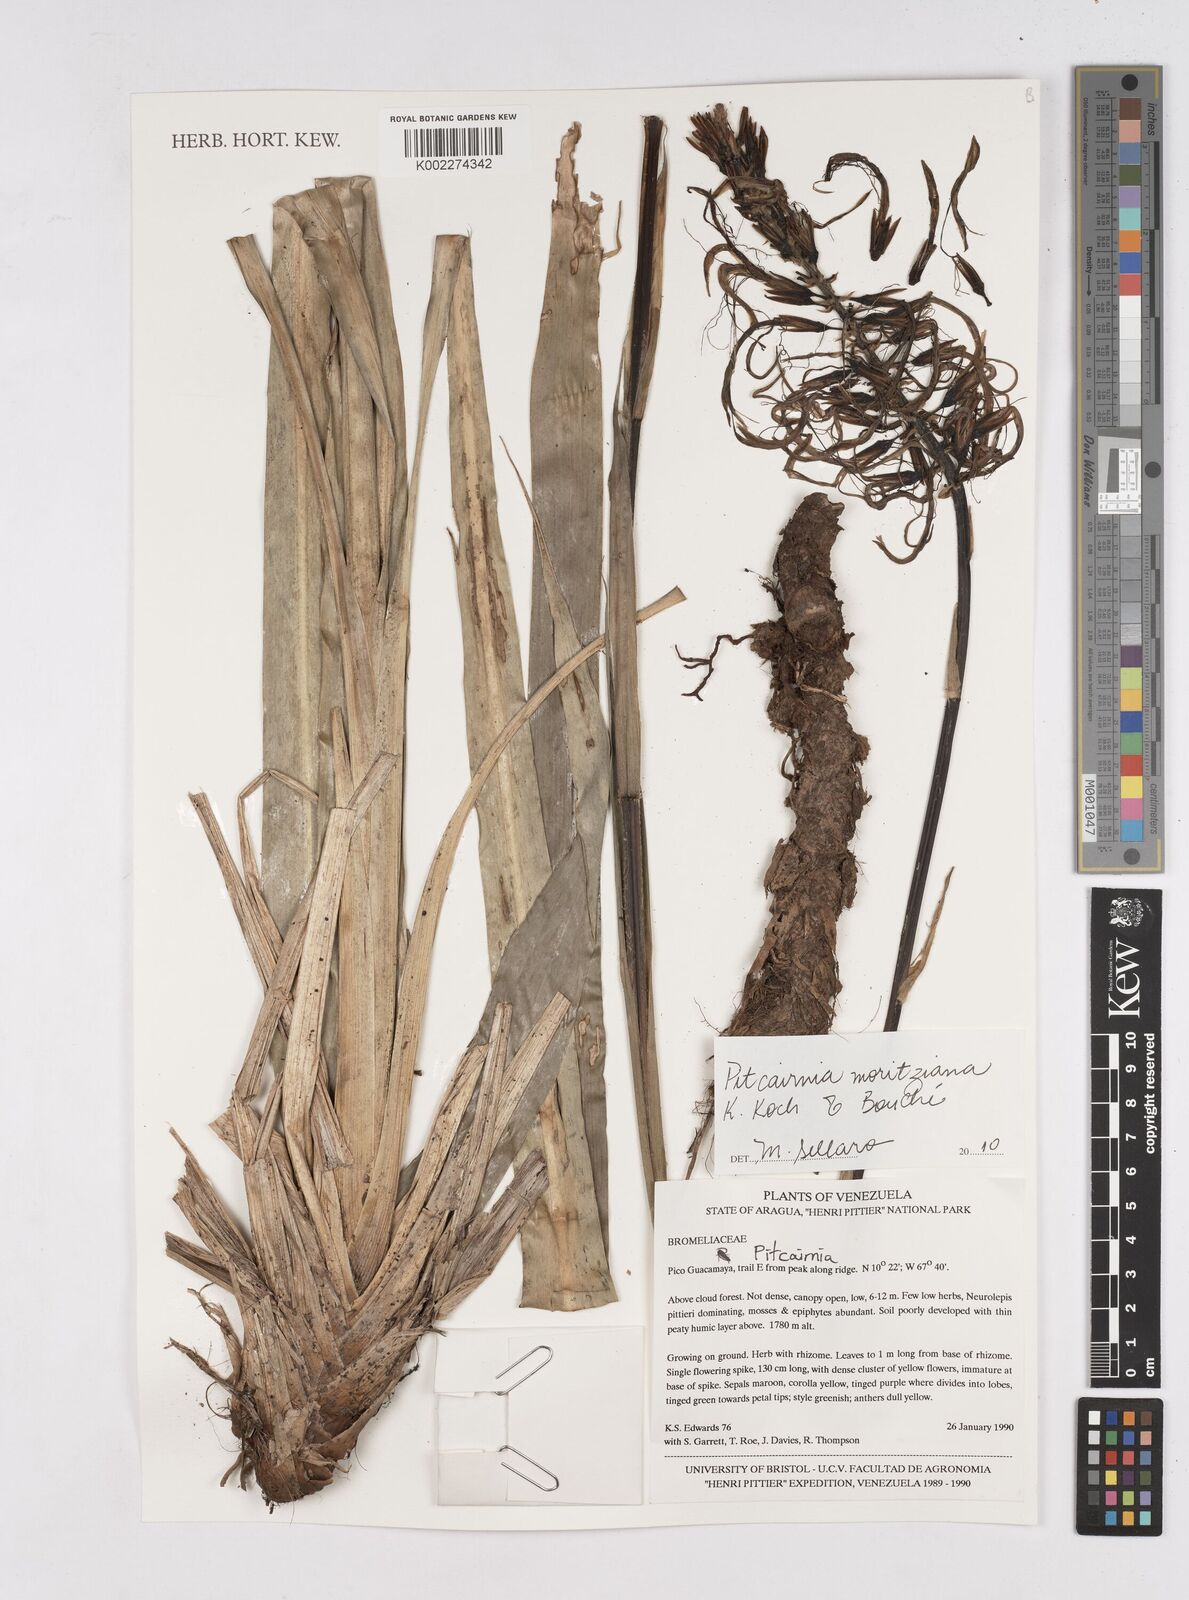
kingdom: Plantae
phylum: Tracheophyta
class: Liliopsida
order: Poales
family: Bromeliaceae
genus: Pitcairnia
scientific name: Pitcairnia moritziana
